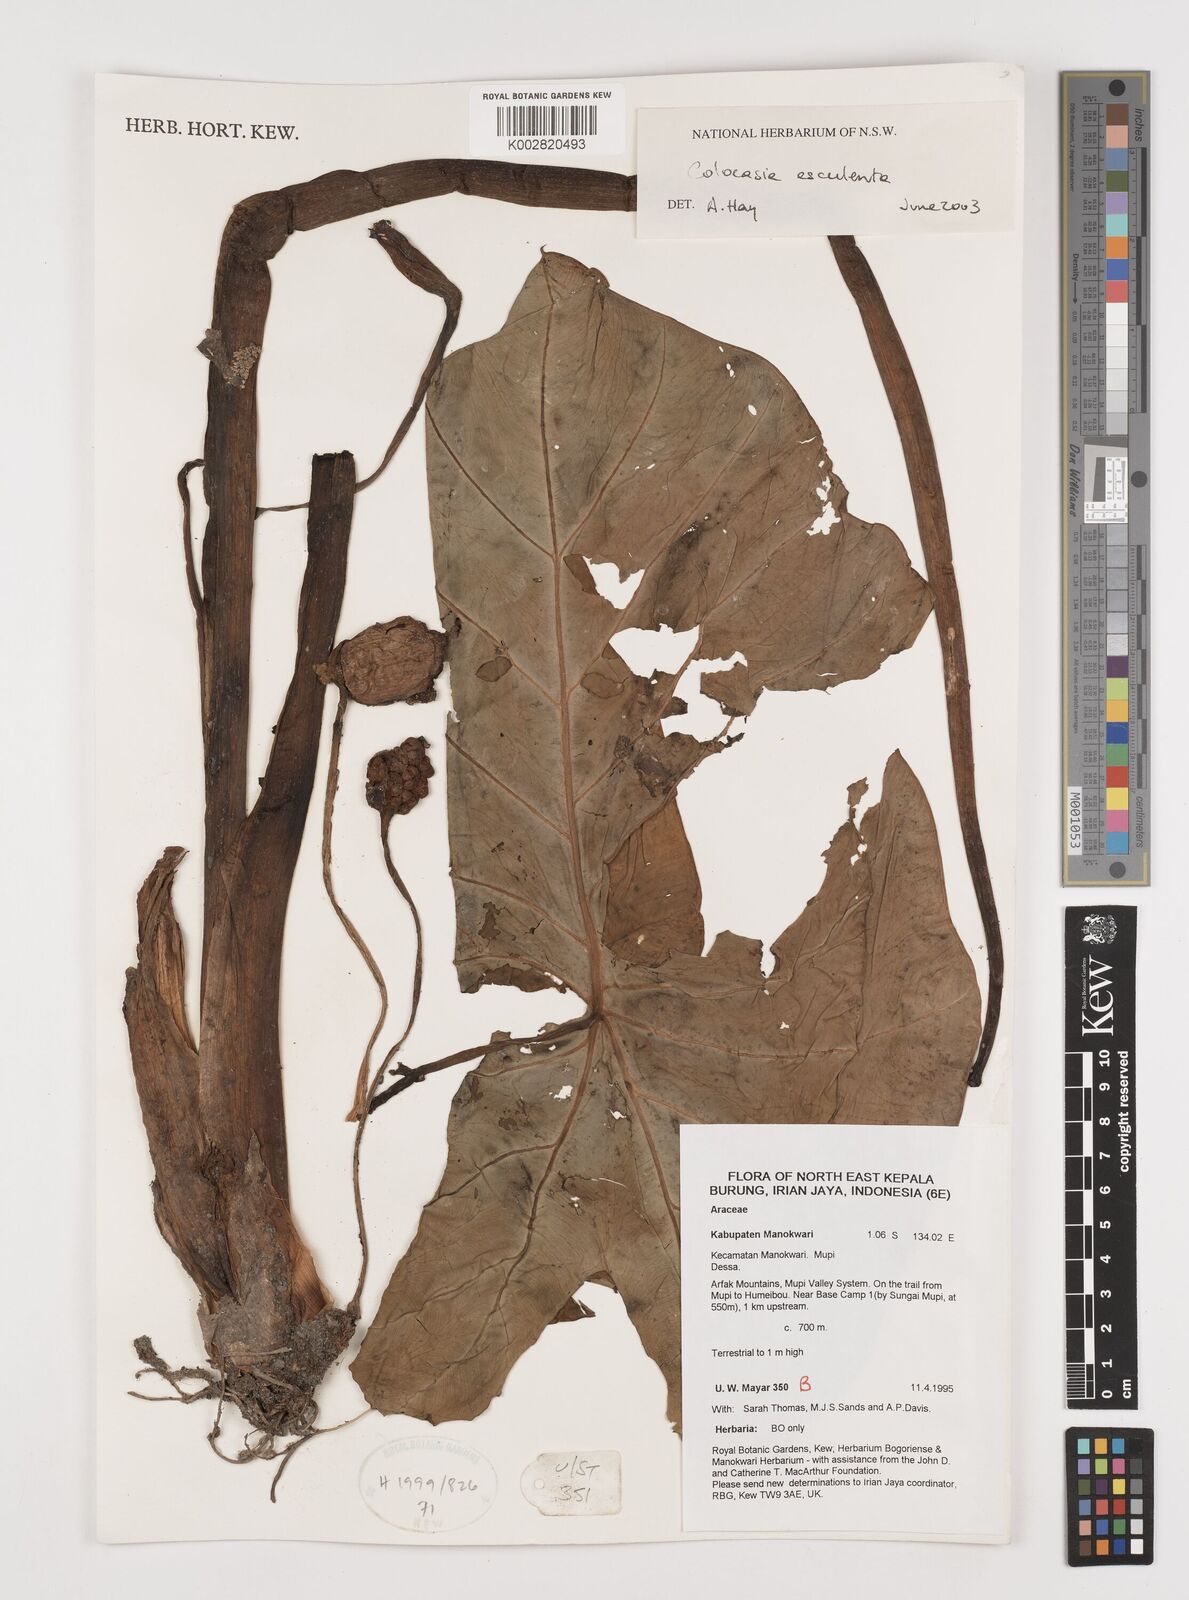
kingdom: Plantae
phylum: Tracheophyta
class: Liliopsida
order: Alismatales
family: Araceae
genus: Colocasia
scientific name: Colocasia esculenta
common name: Taro
